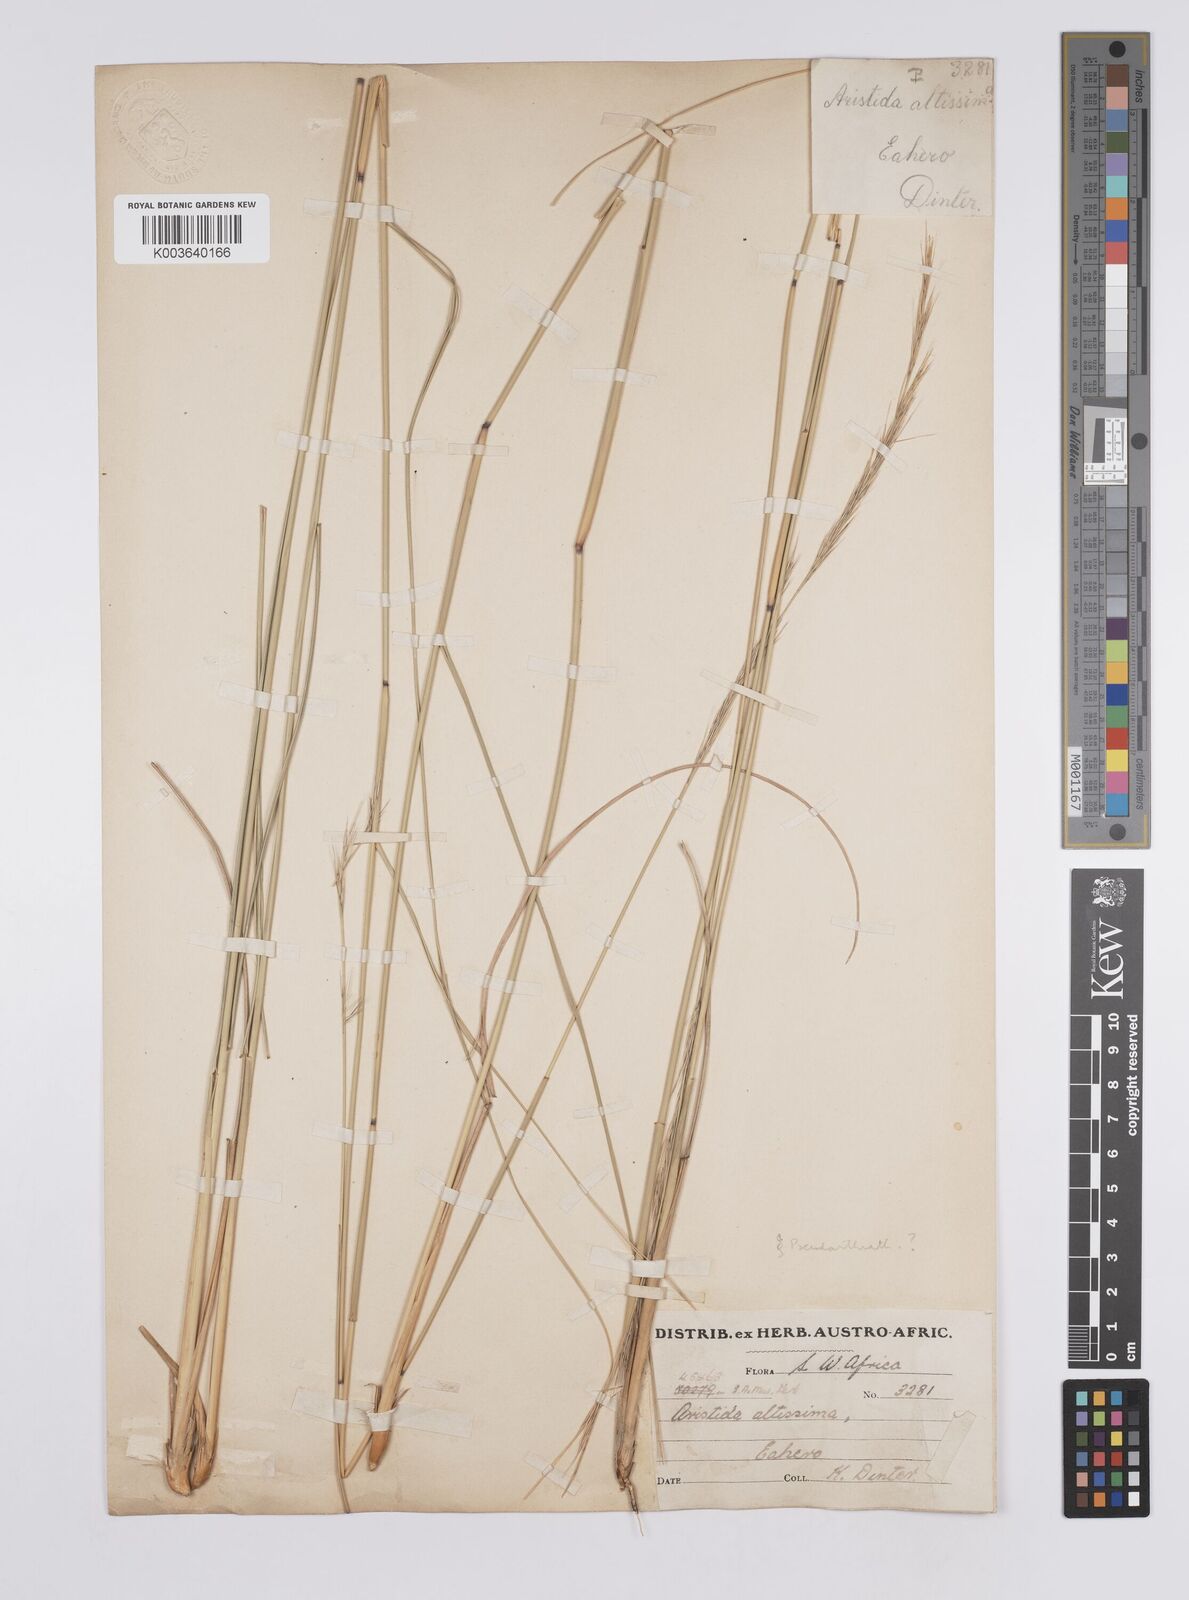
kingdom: Plantae
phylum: Tracheophyta
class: Liliopsida
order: Poales
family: Poaceae
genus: Aristida
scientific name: Aristida pilgeri
